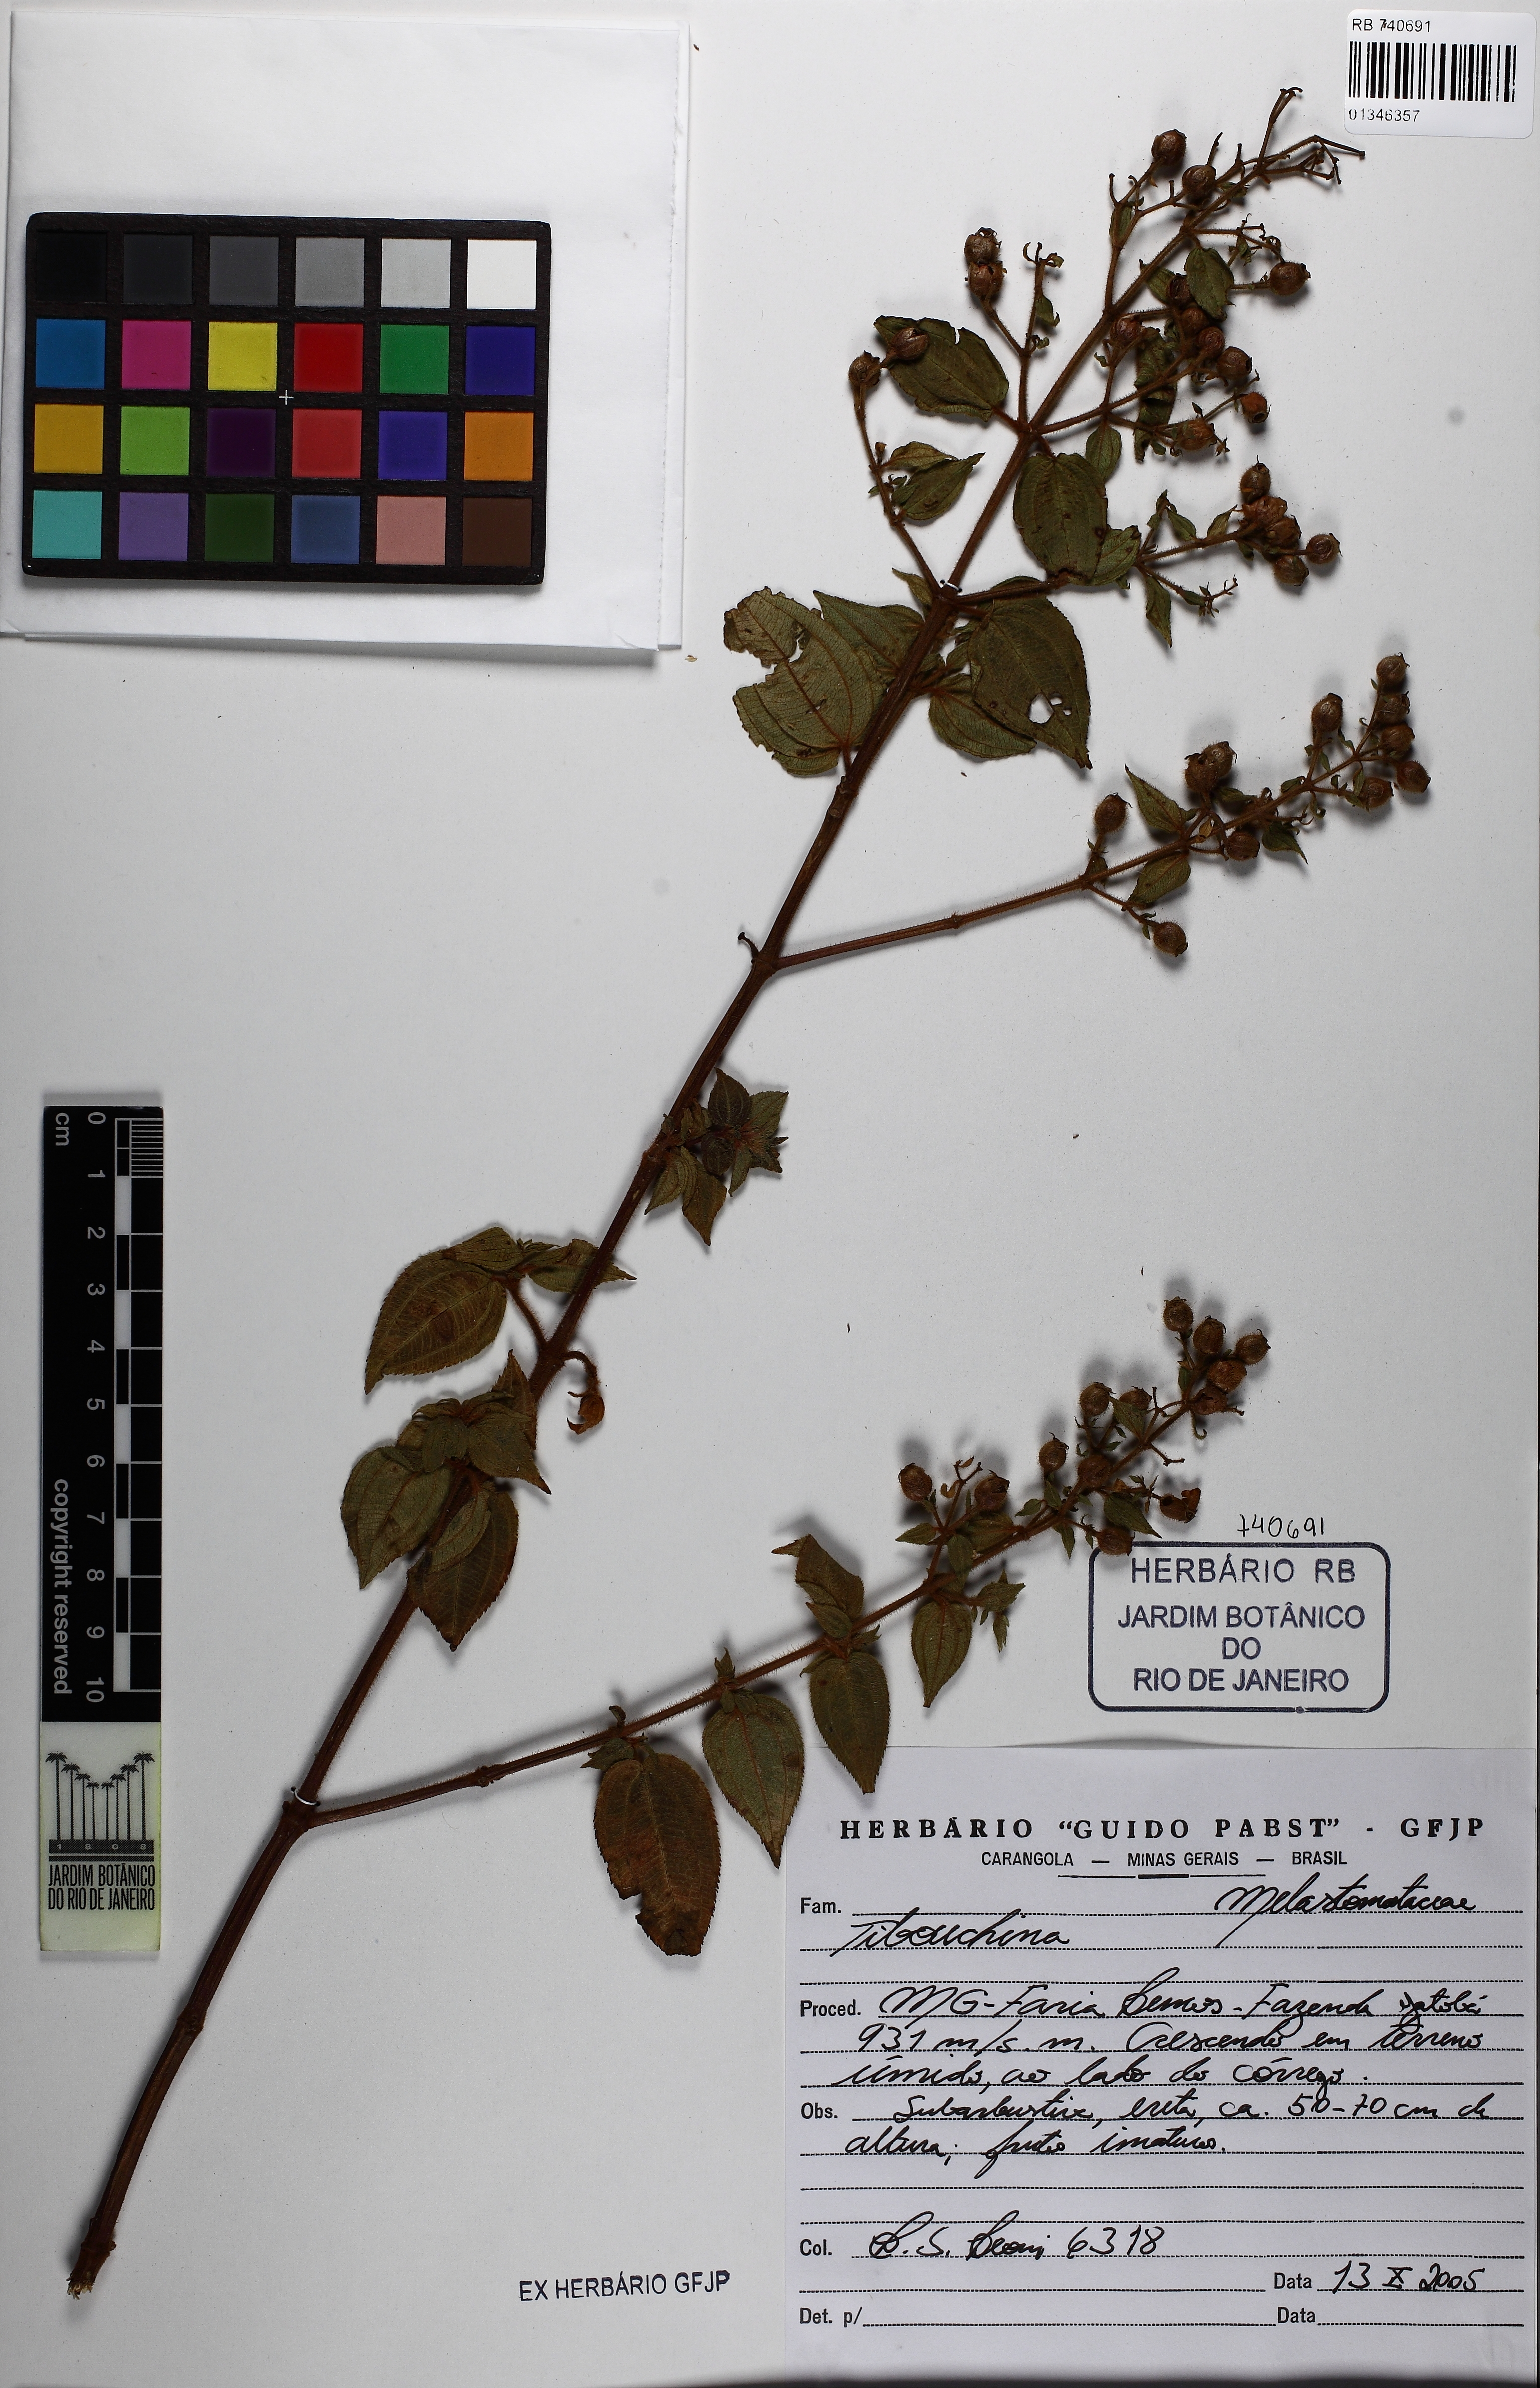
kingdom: Plantae
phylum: Tracheophyta
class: Magnoliopsida
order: Myrtales
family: Melastomataceae
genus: Tibouchina
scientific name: Tibouchina
